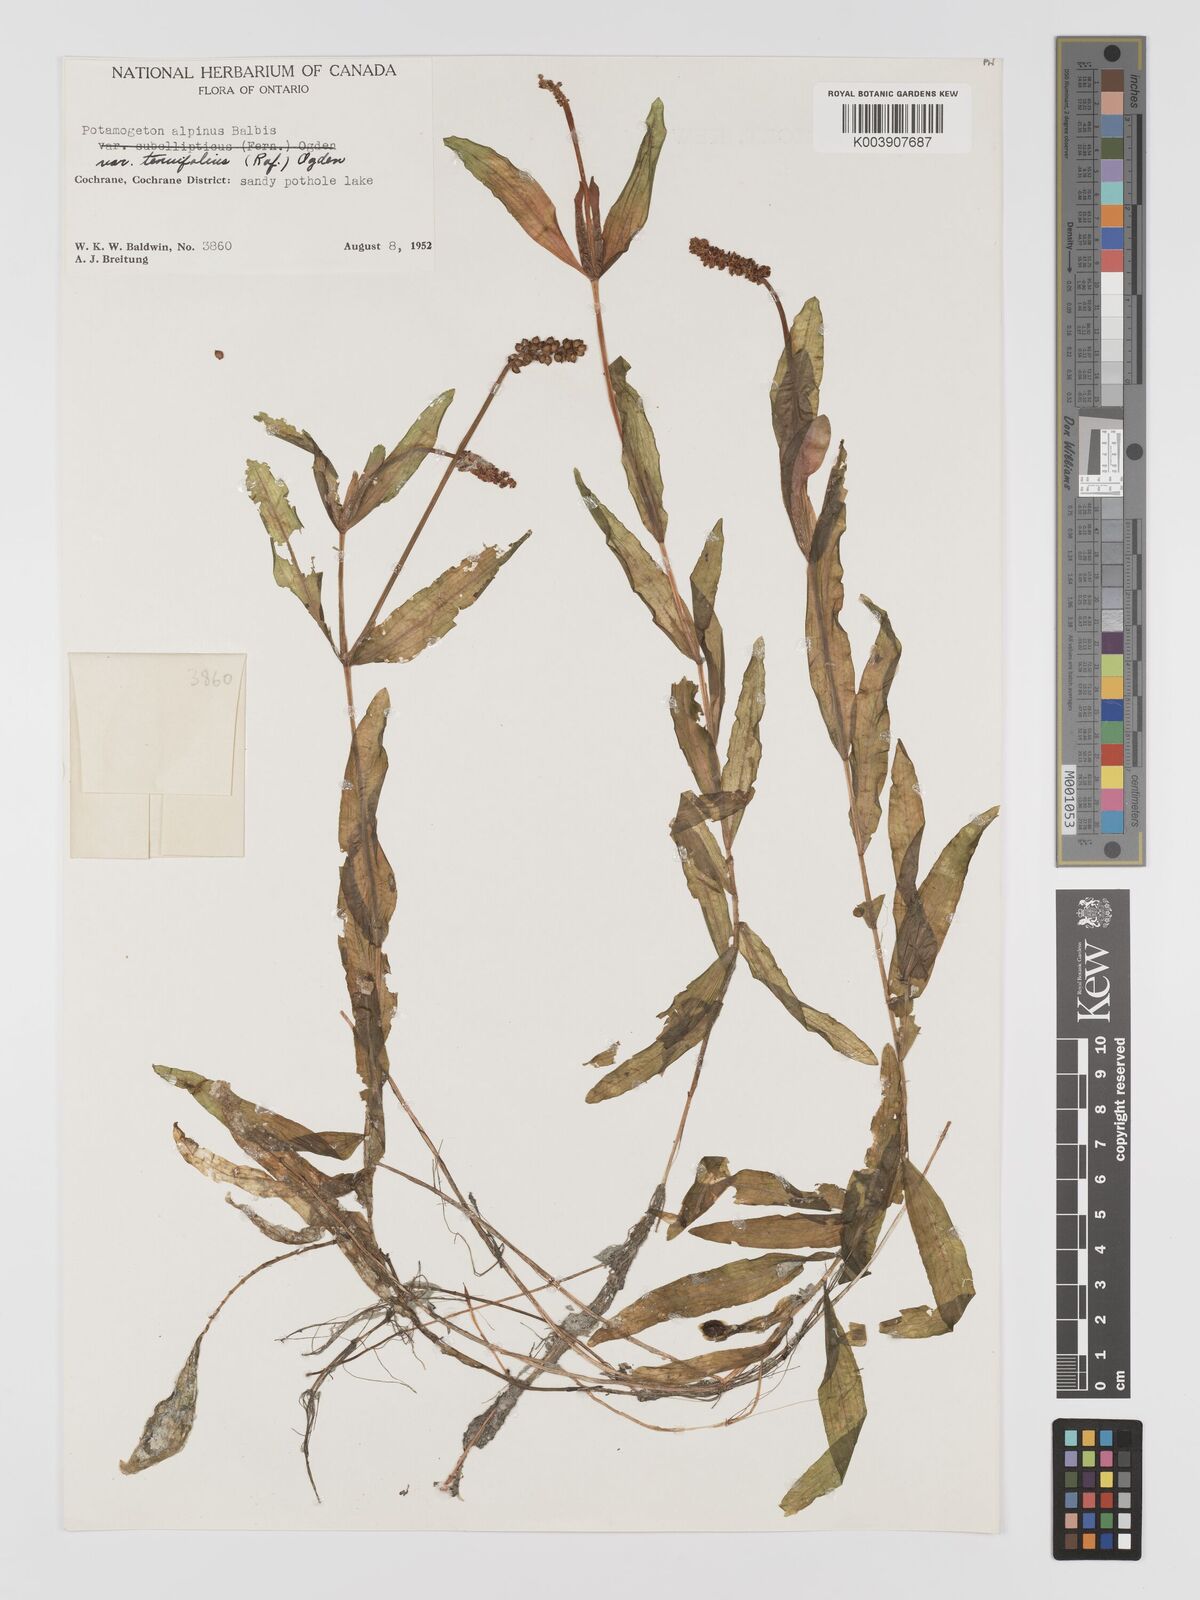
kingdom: Plantae
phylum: Tracheophyta
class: Liliopsida
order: Alismatales
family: Potamogetonaceae
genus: Potamogeton
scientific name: Potamogeton alpinus
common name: Red pondweed
